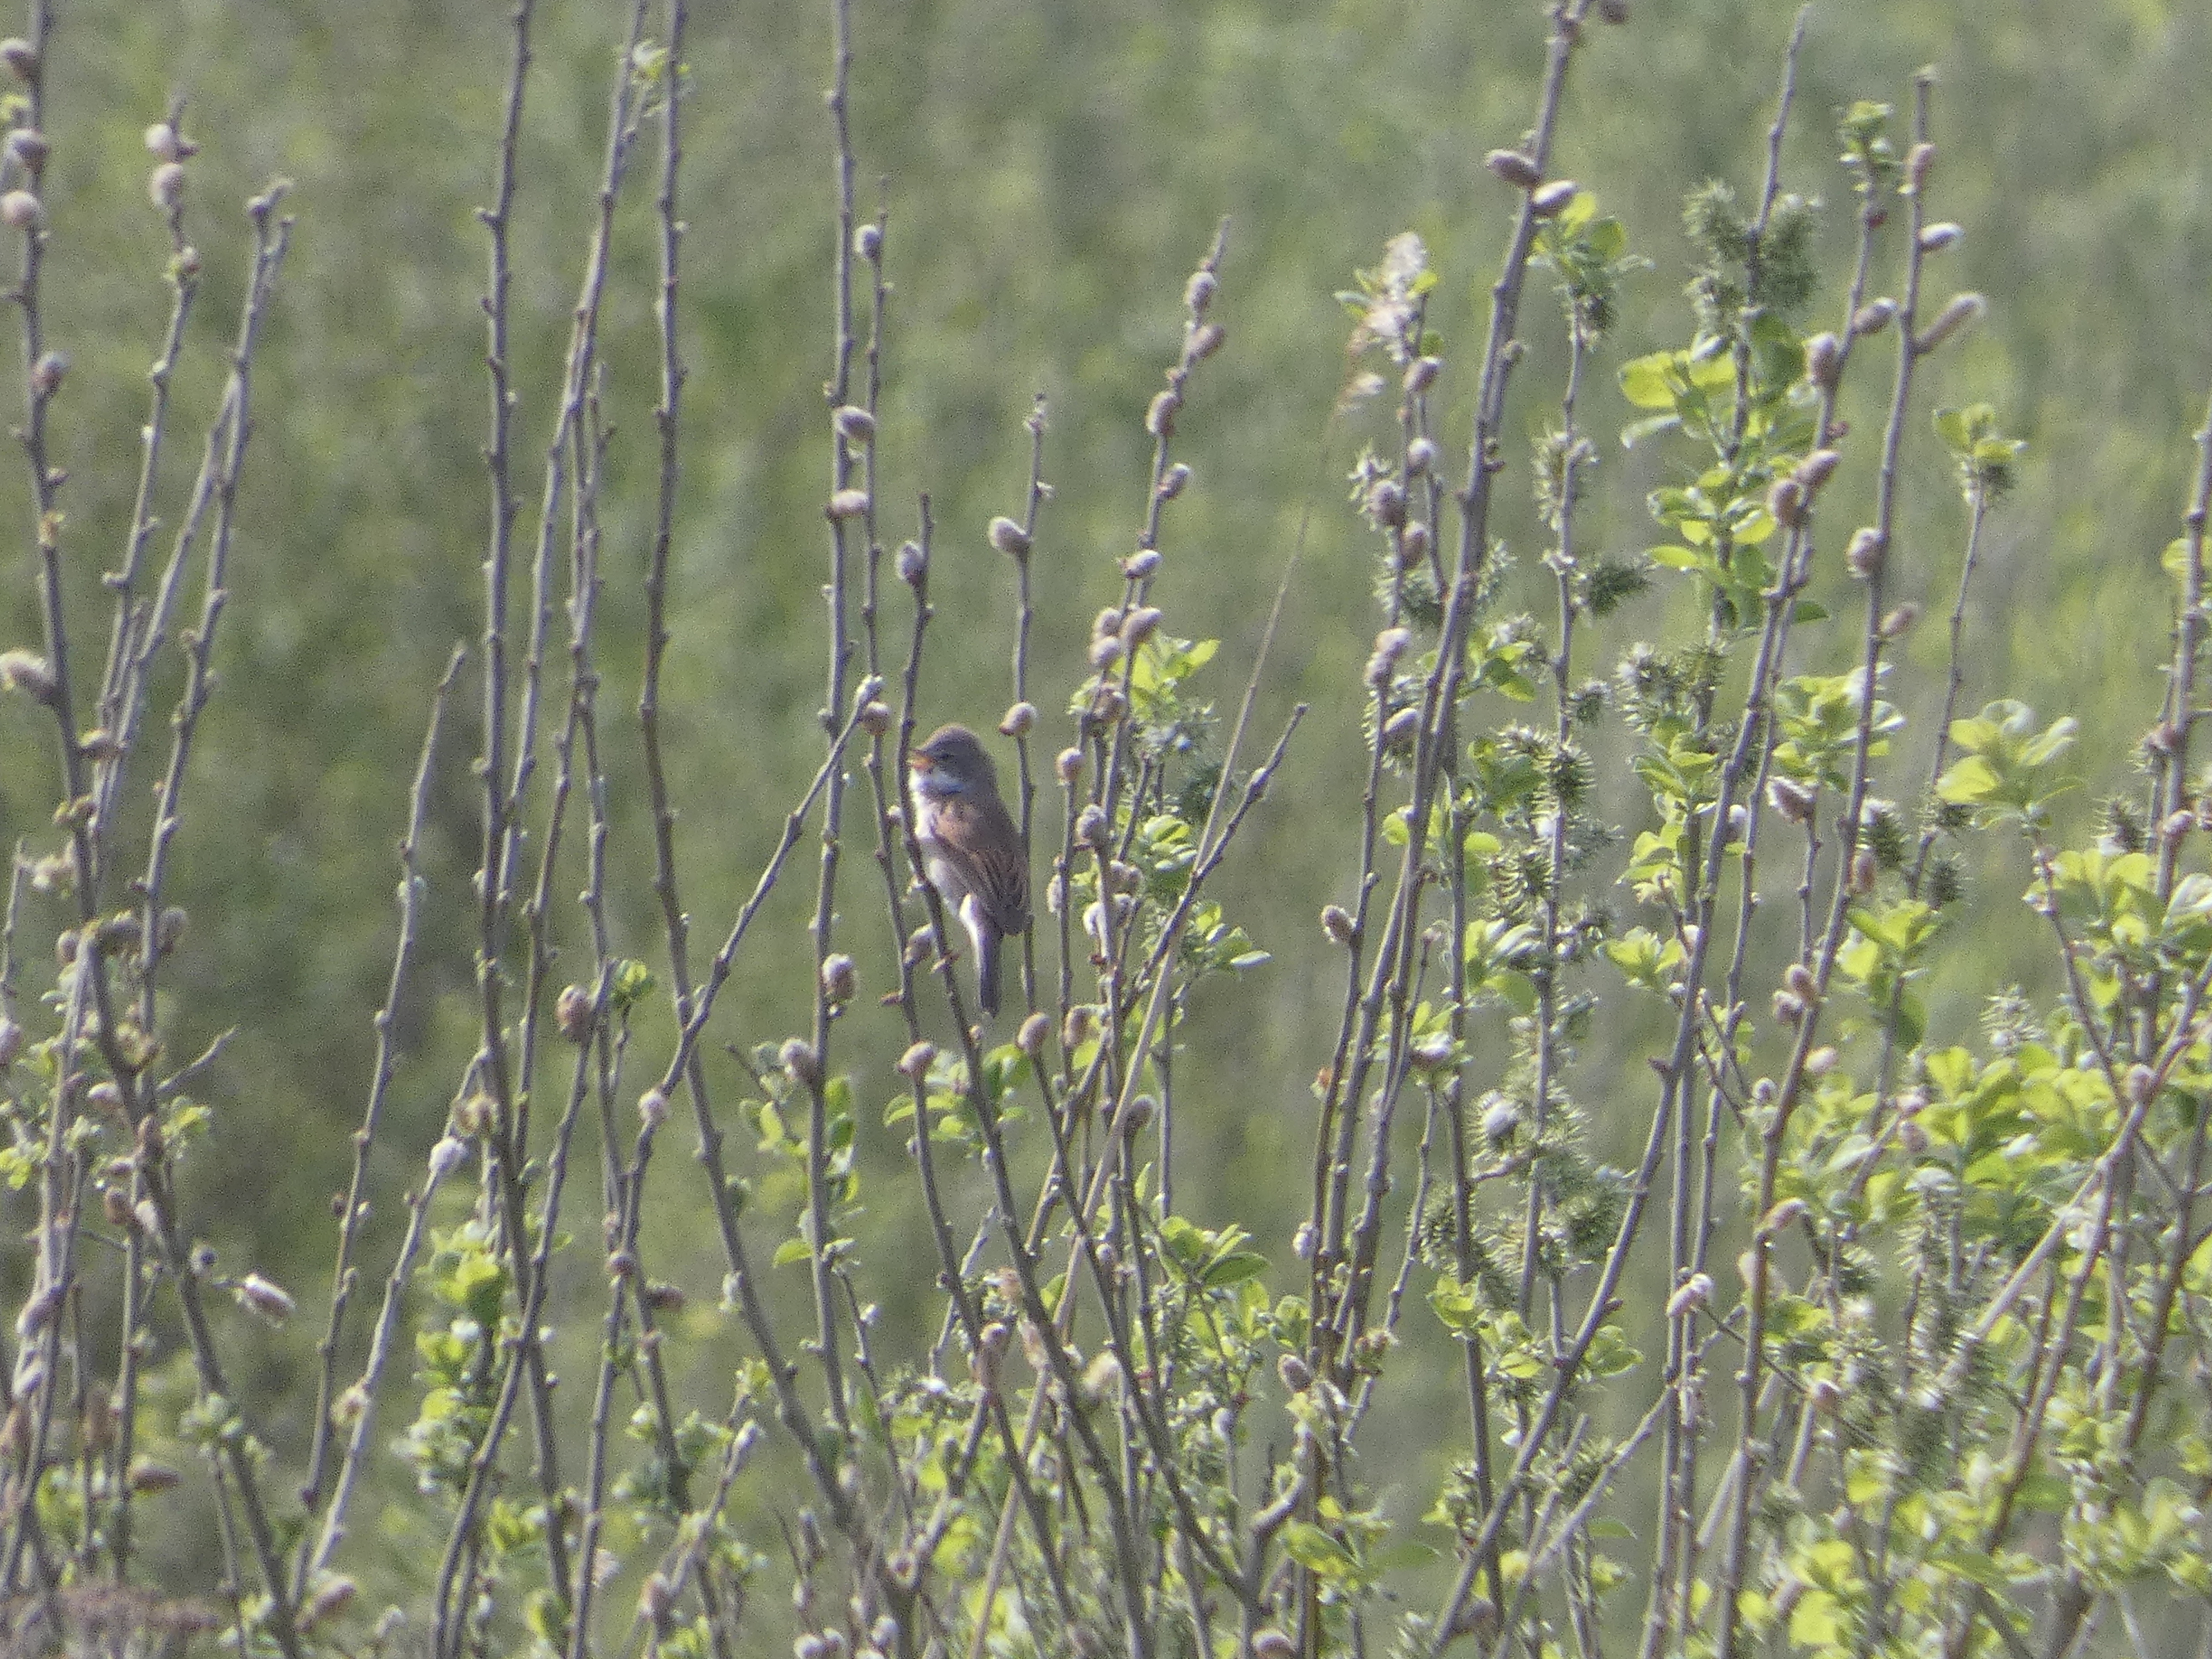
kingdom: Animalia
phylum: Chordata
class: Aves
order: Passeriformes
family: Sylviidae
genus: Sylvia
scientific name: Sylvia communis
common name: Tornsanger
